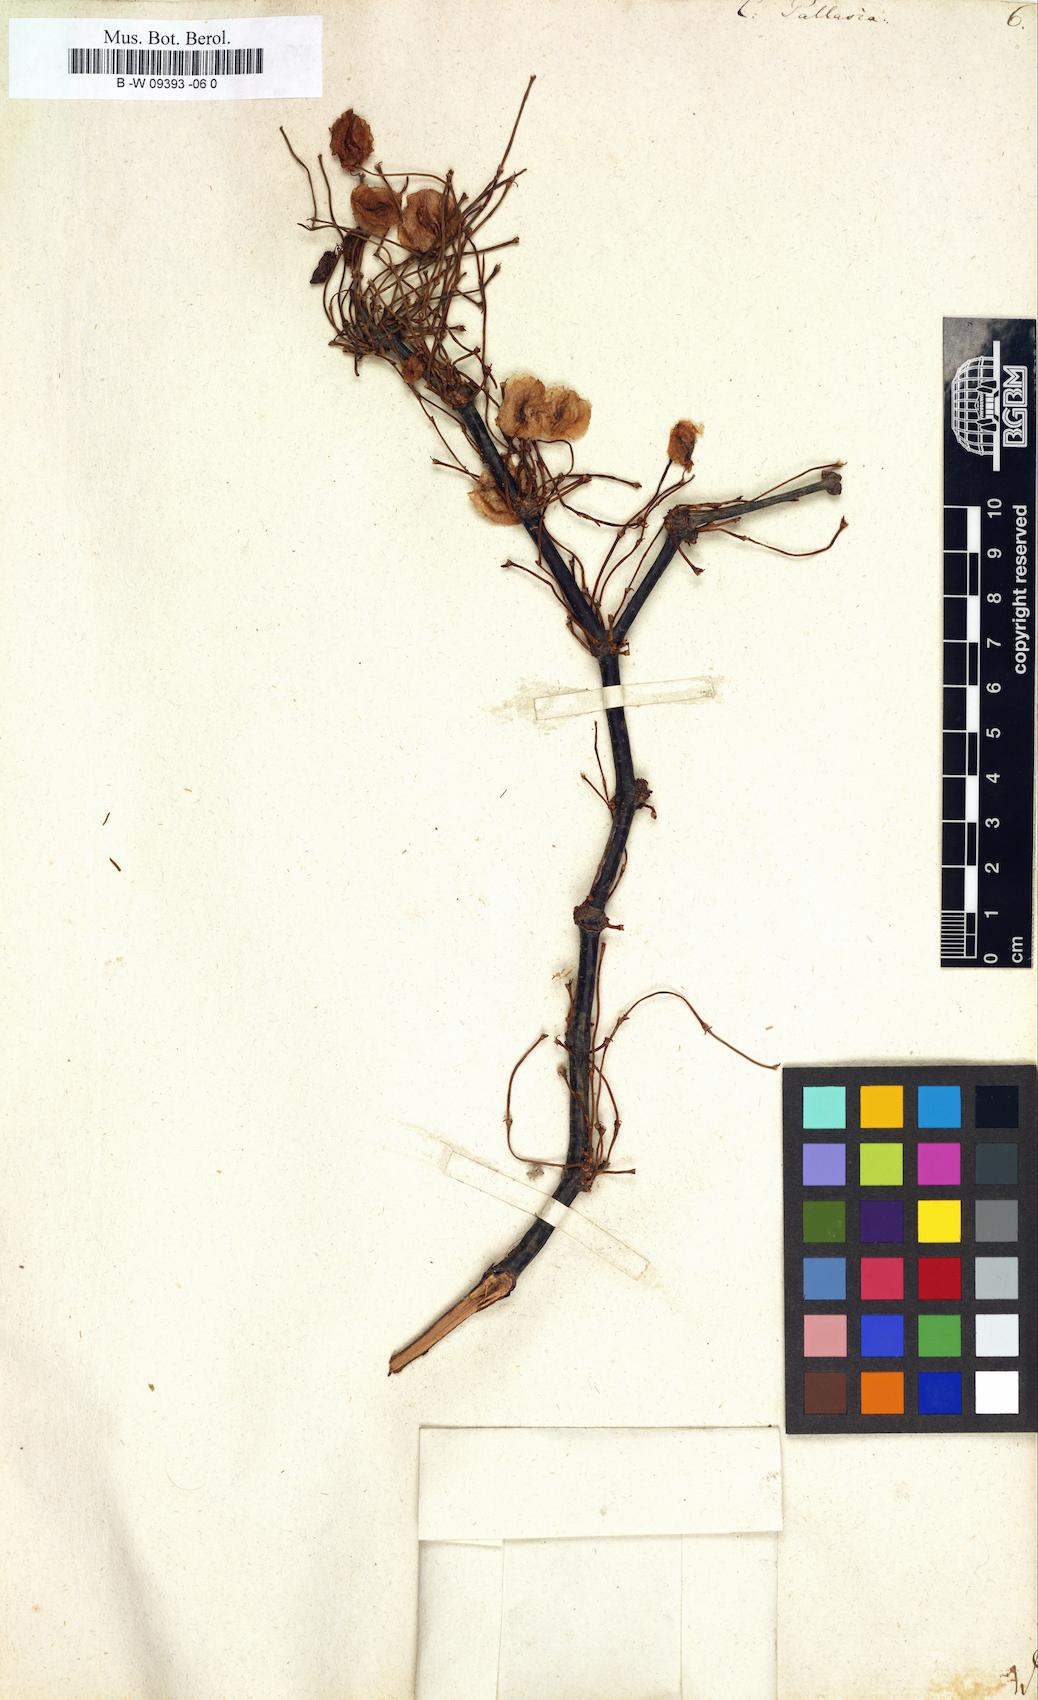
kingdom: Plantae
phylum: Tracheophyta
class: Magnoliopsida
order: Caryophyllales
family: Polygonaceae
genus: Calligonum
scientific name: Calligonum aphyllum
